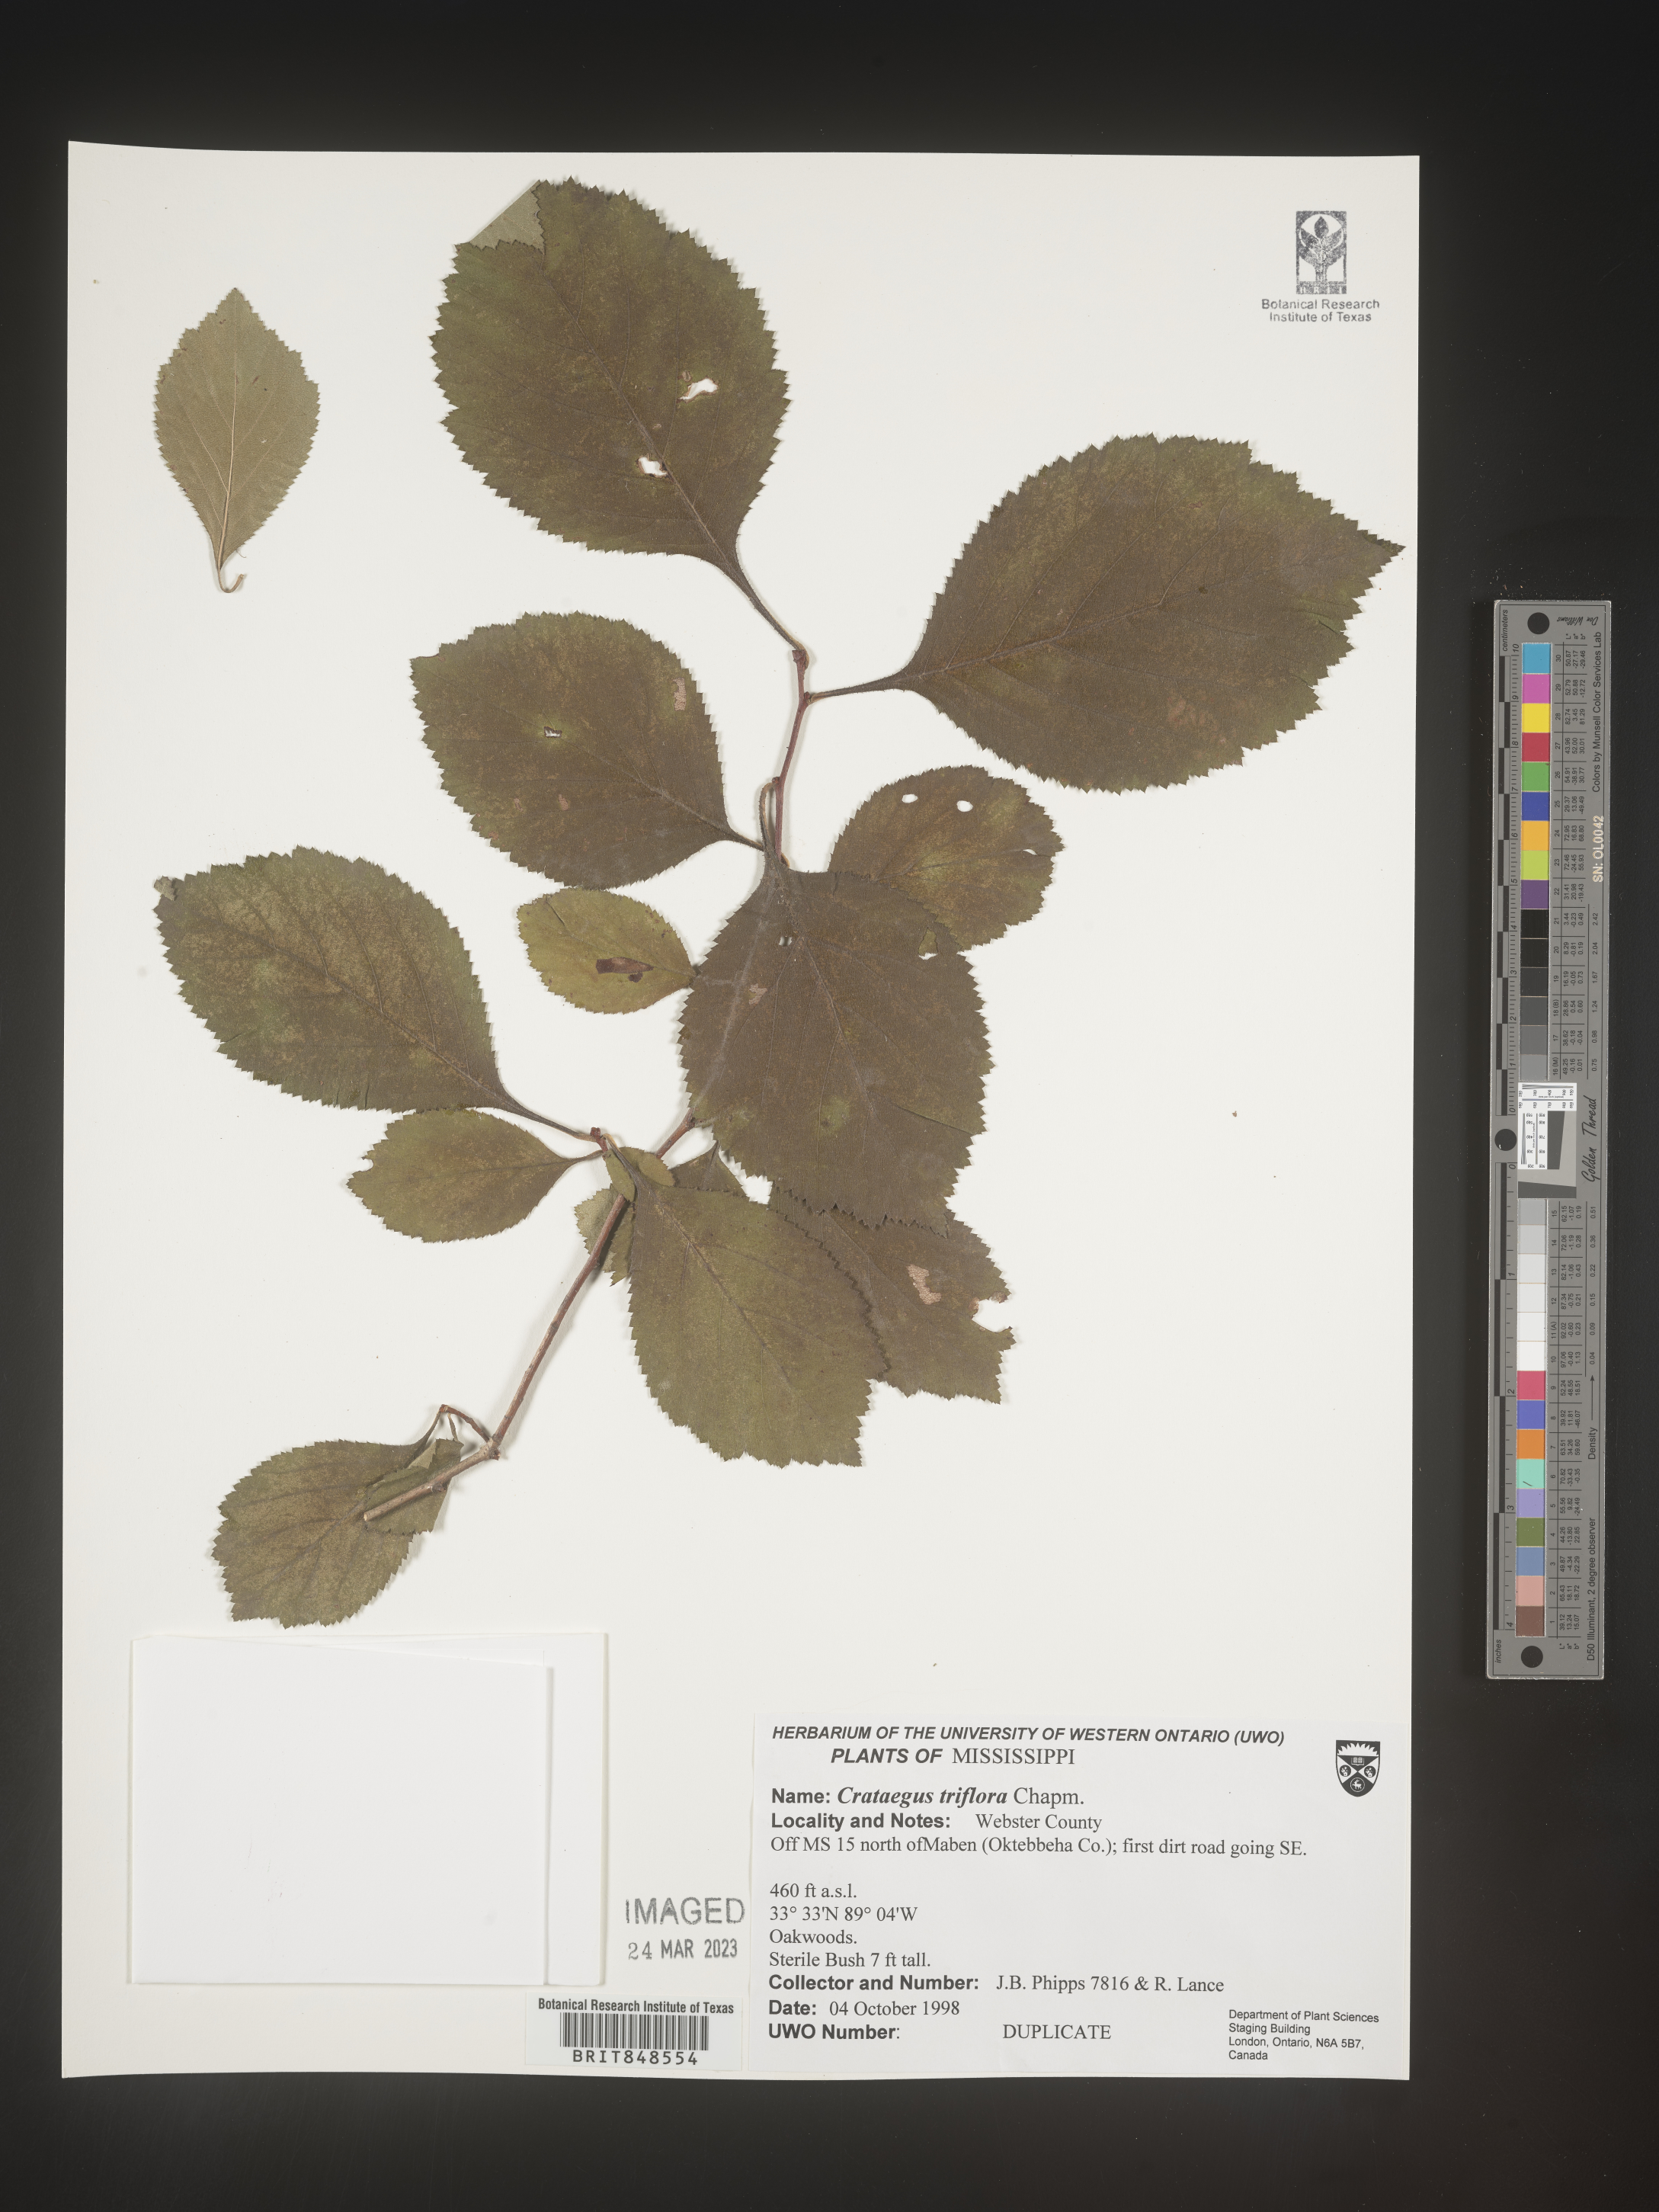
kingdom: Plantae
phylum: Tracheophyta
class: Magnoliopsida
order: Rosales
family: Rosaceae
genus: Crataegus
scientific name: Crataegus
